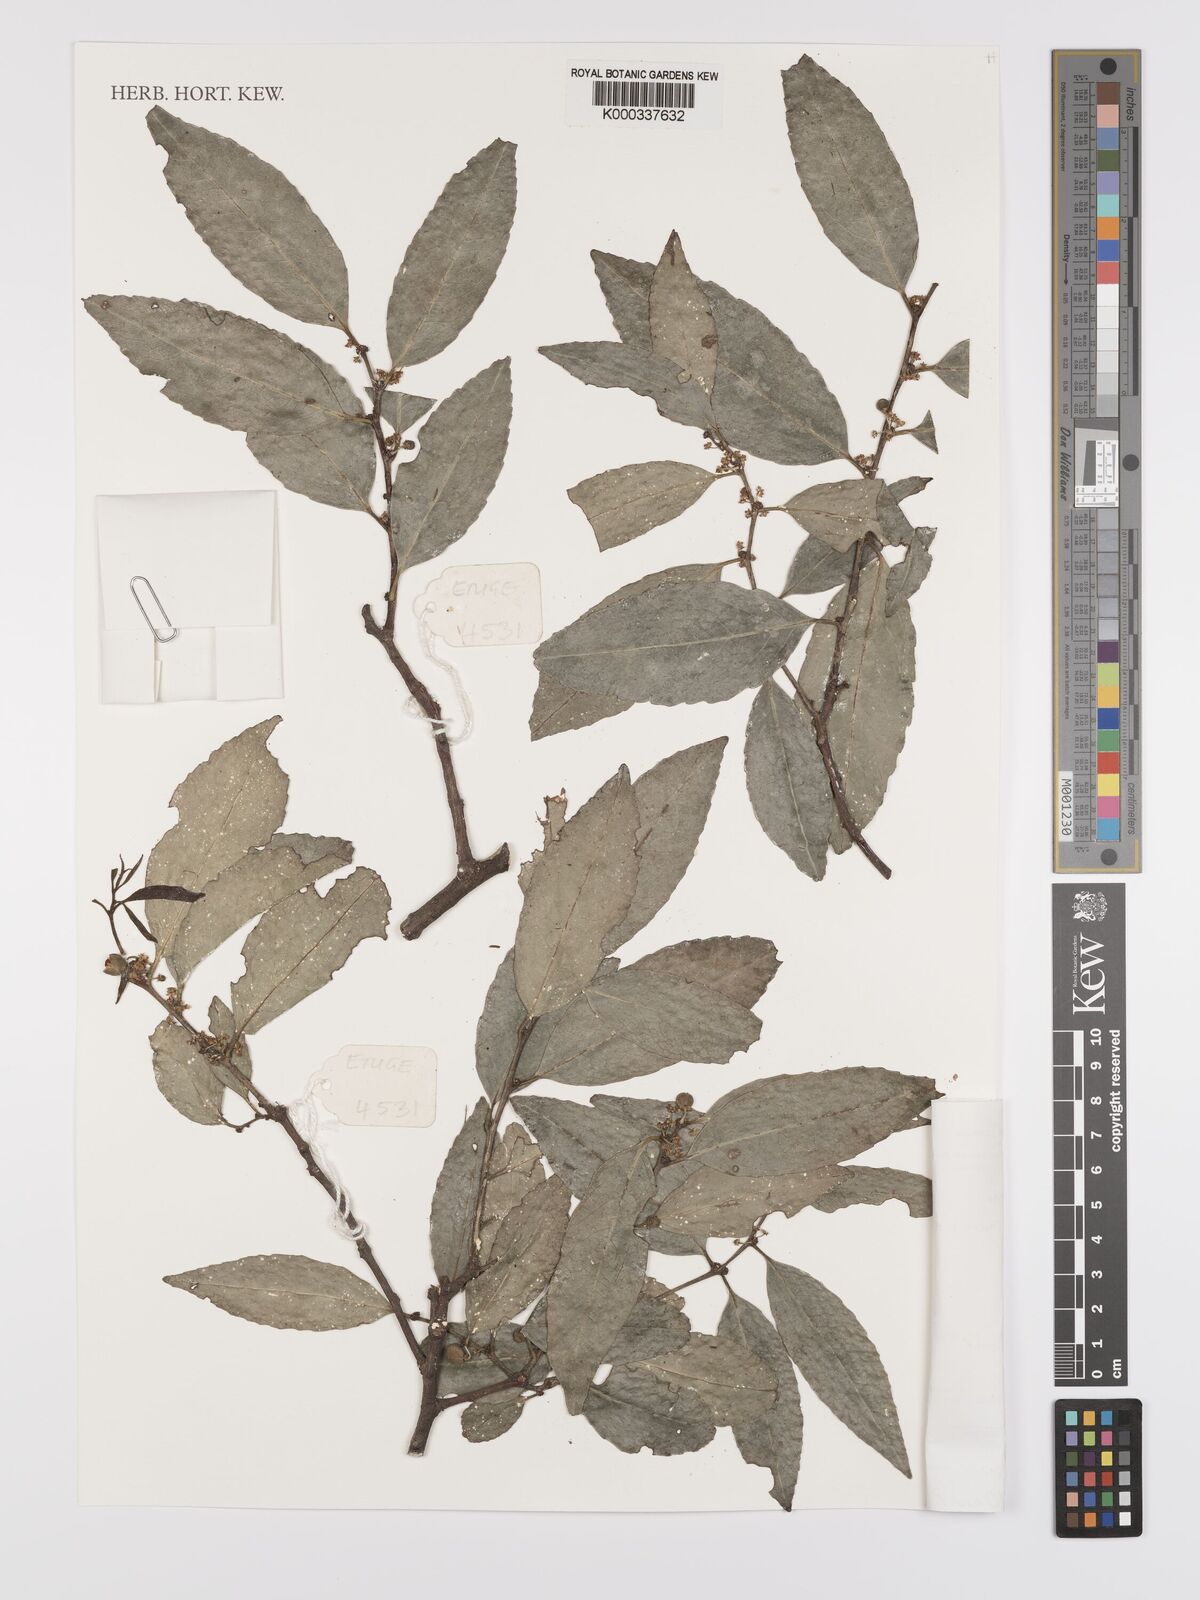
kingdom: Plantae
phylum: Tracheophyta
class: Magnoliopsida
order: Celastrales
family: Celastraceae
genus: Gymnosporia
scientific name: Gymnosporia undata
